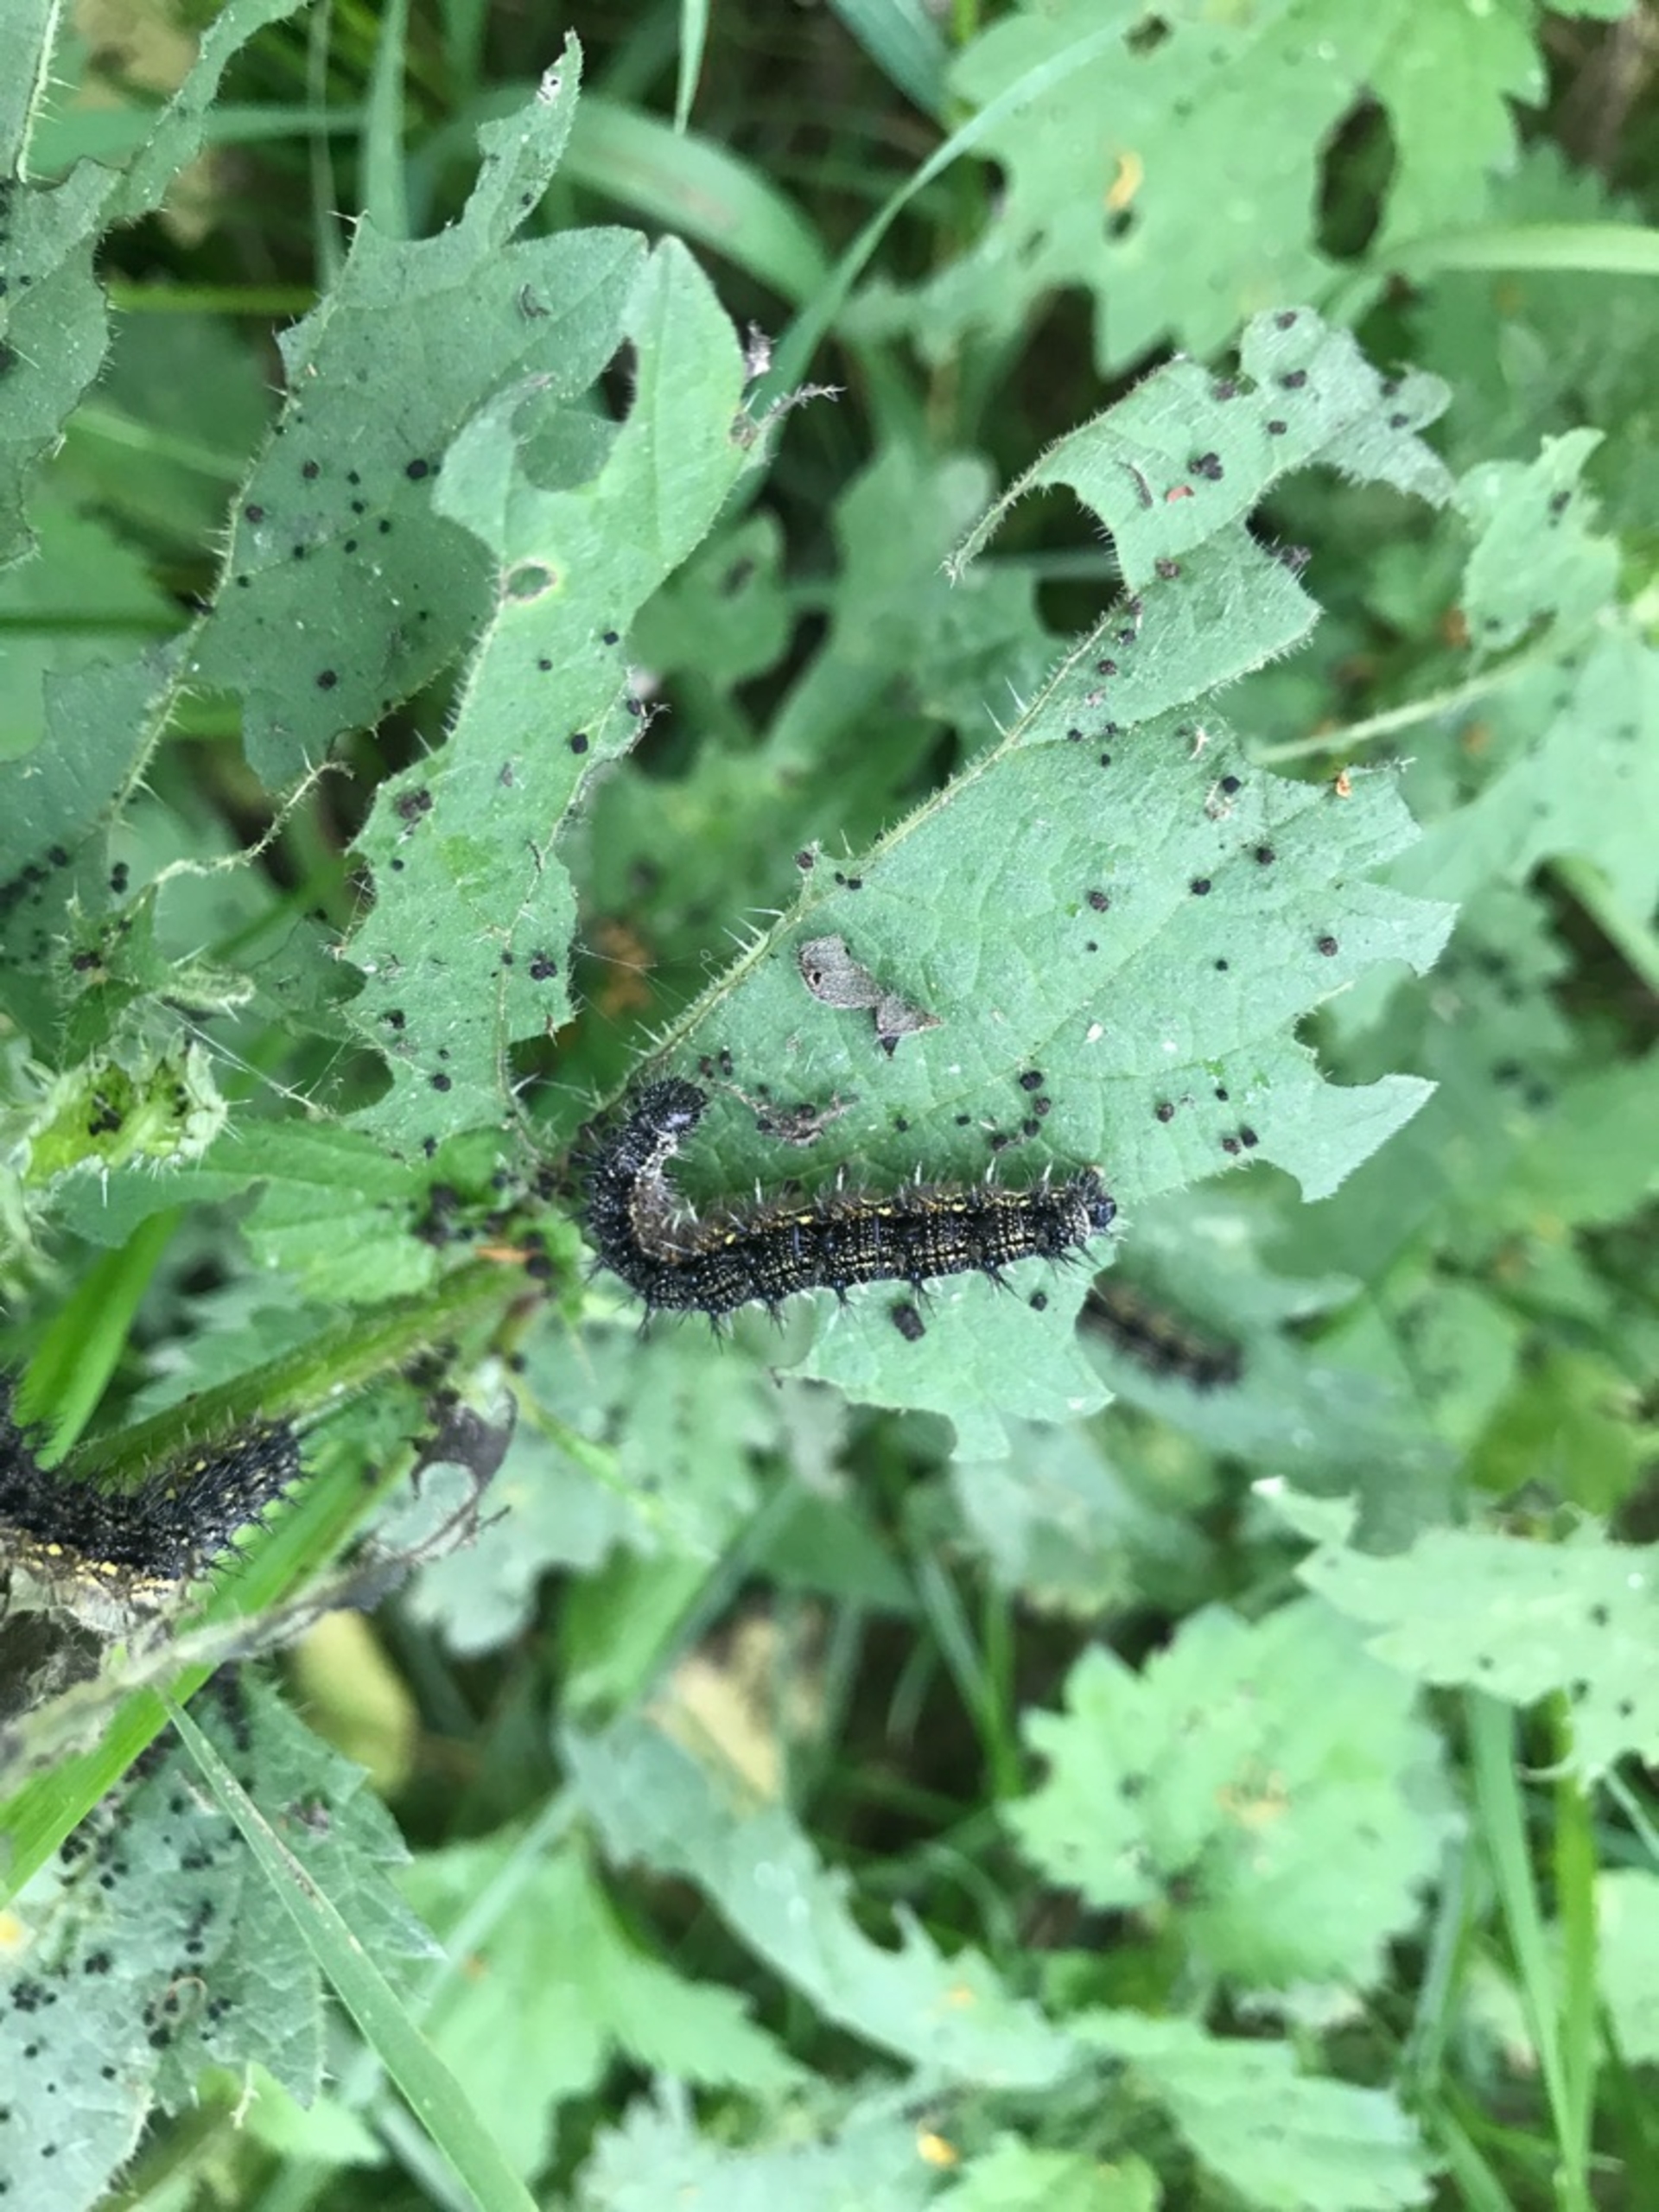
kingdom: Animalia
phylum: Arthropoda
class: Insecta
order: Lepidoptera
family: Nymphalidae
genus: Aglais
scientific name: Aglais urticae
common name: Nældens takvinge
